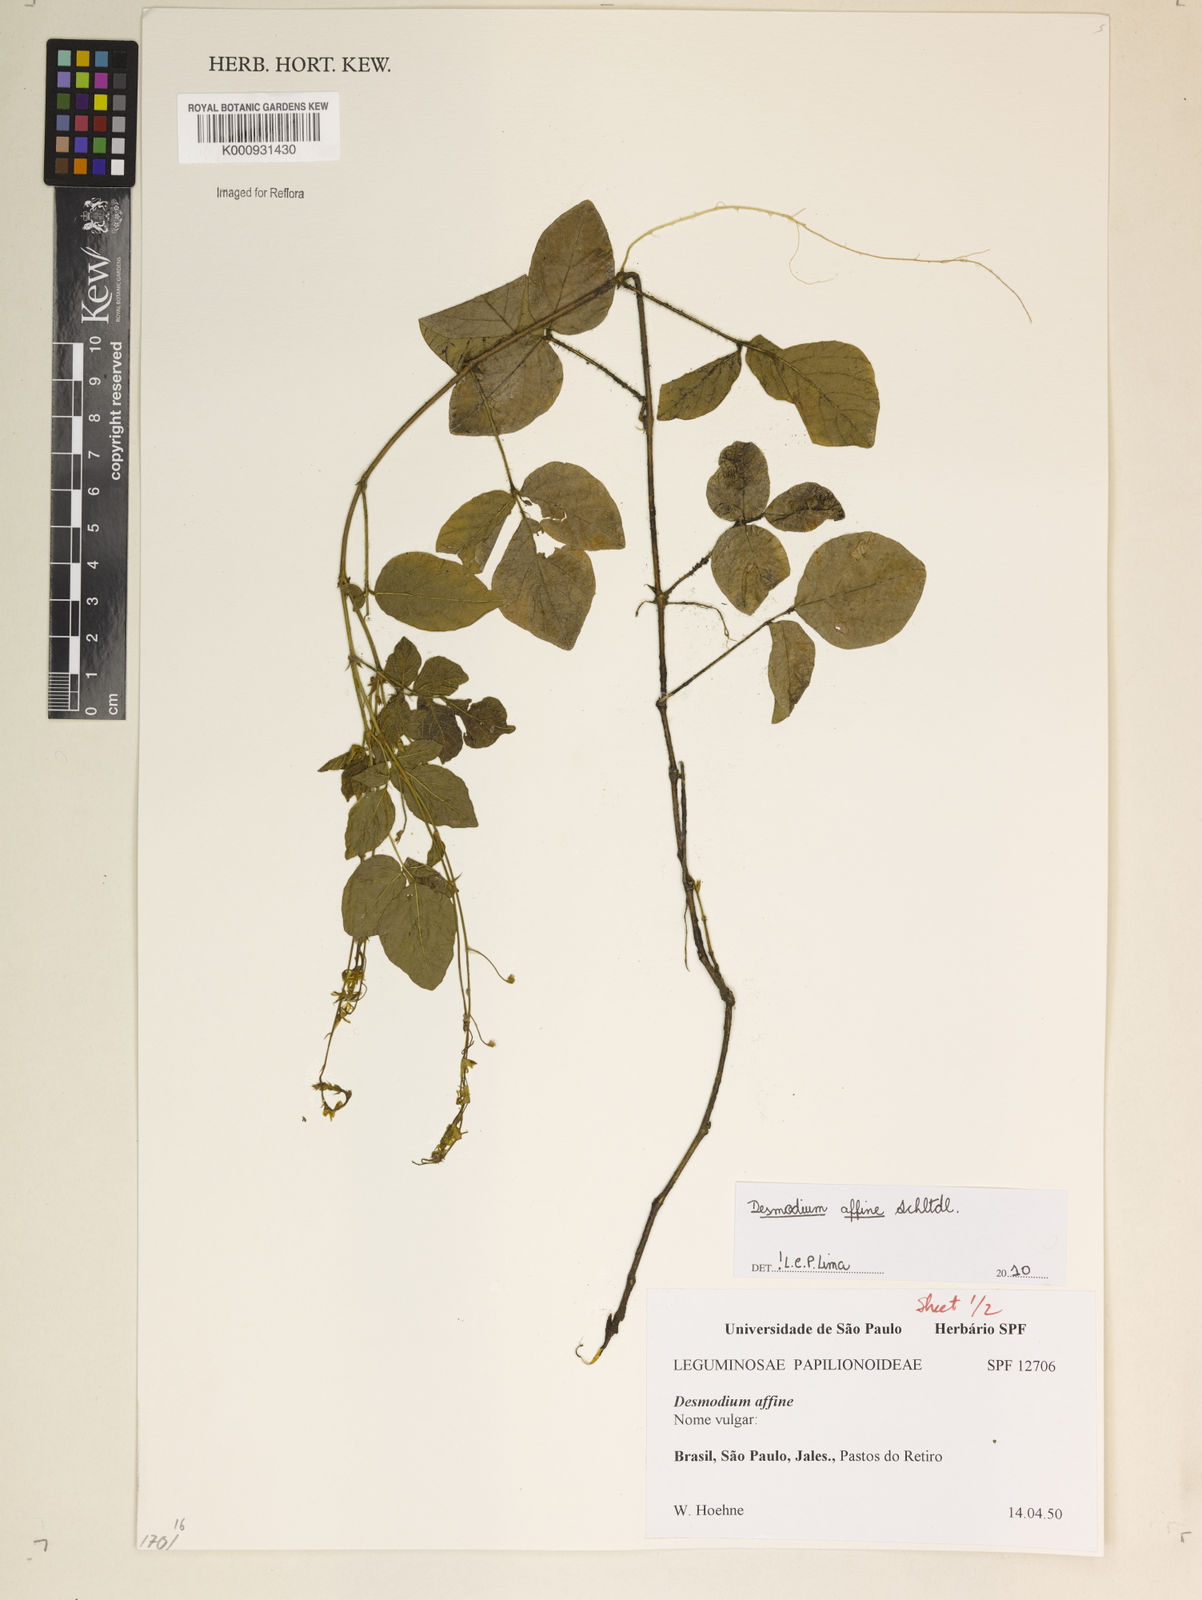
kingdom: Plantae
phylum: Tracheophyta
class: Magnoliopsida
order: Fabales
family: Fabaceae
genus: Desmodium
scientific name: Desmodium affine
